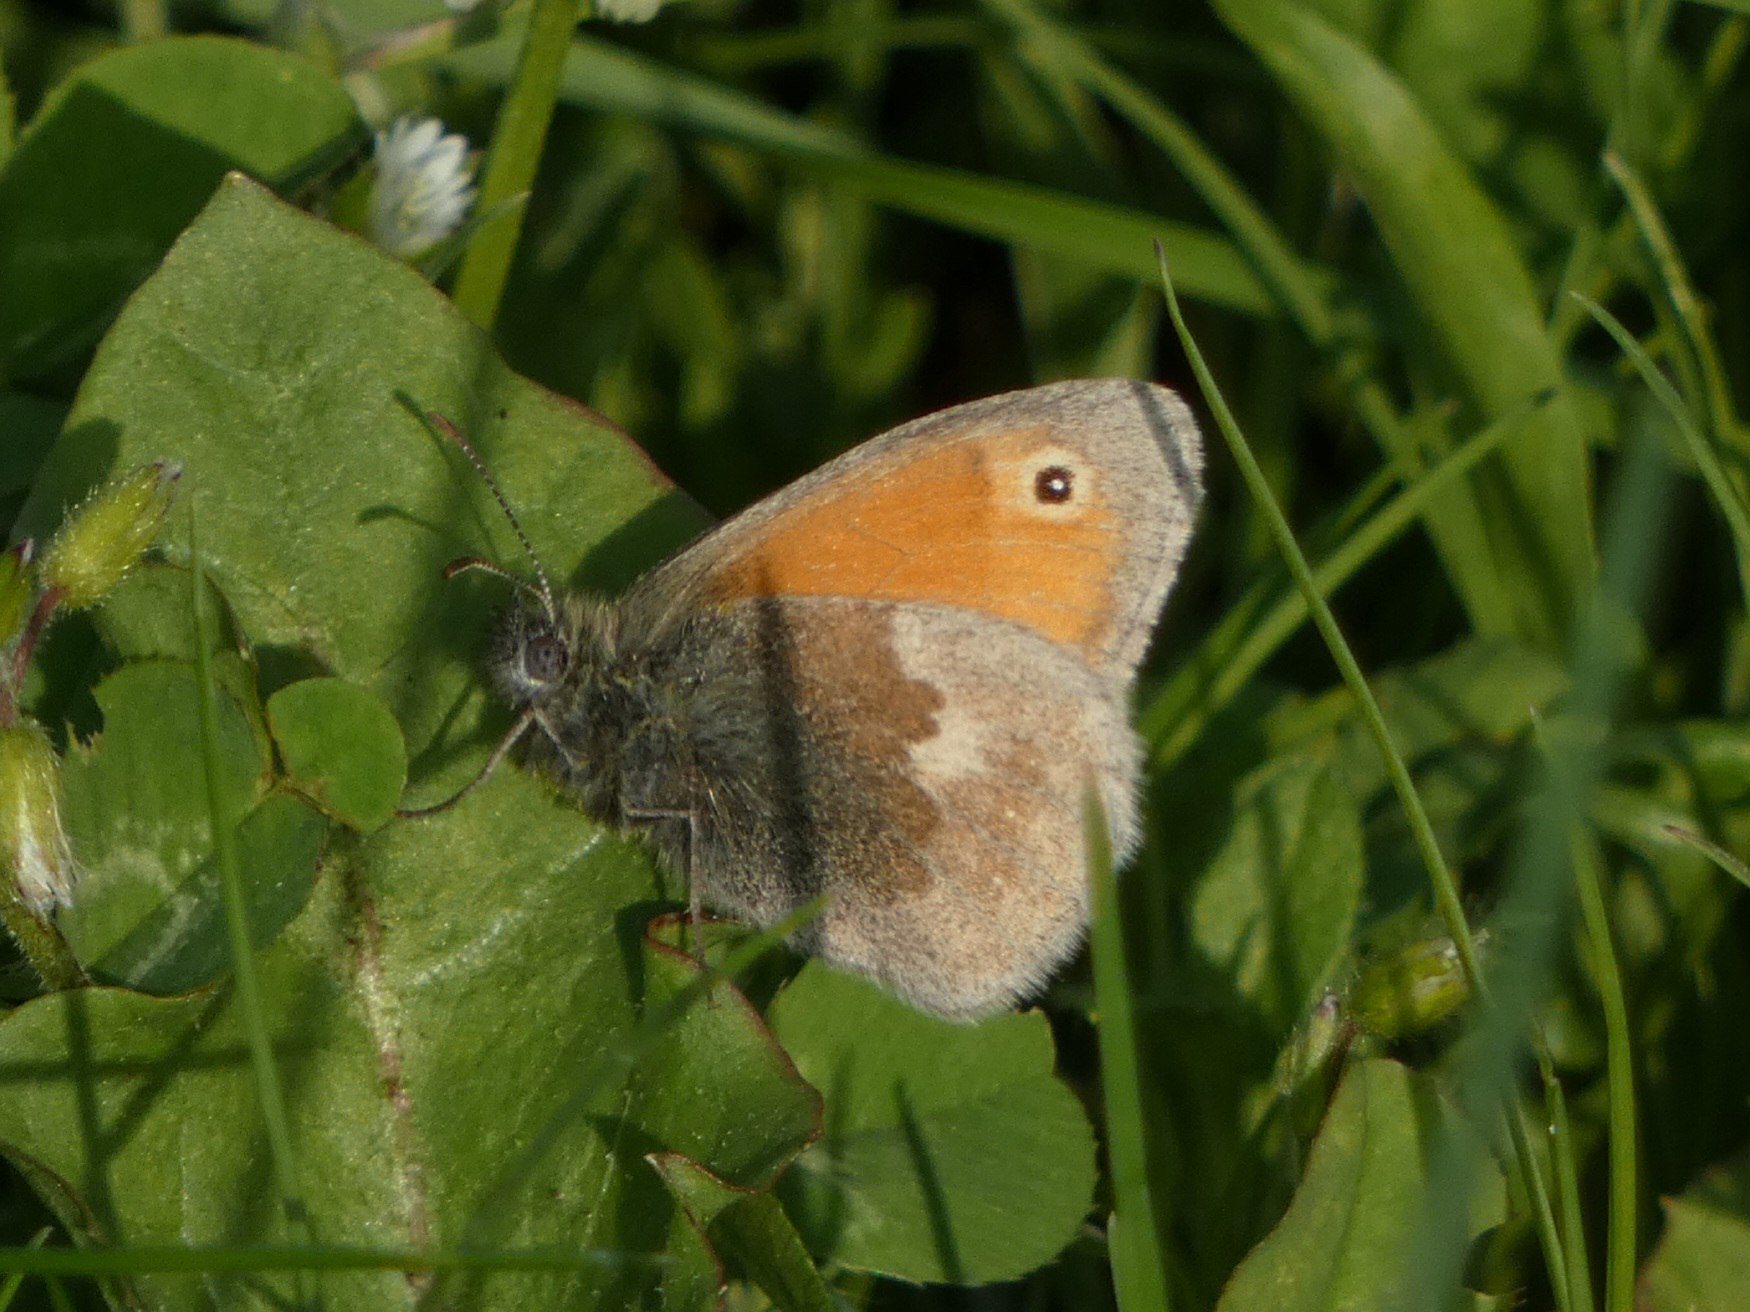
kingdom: Animalia
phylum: Arthropoda
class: Insecta
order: Lepidoptera
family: Nymphalidae
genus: Coenonympha
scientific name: Coenonympha pamphilus
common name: Okkergul randøje
